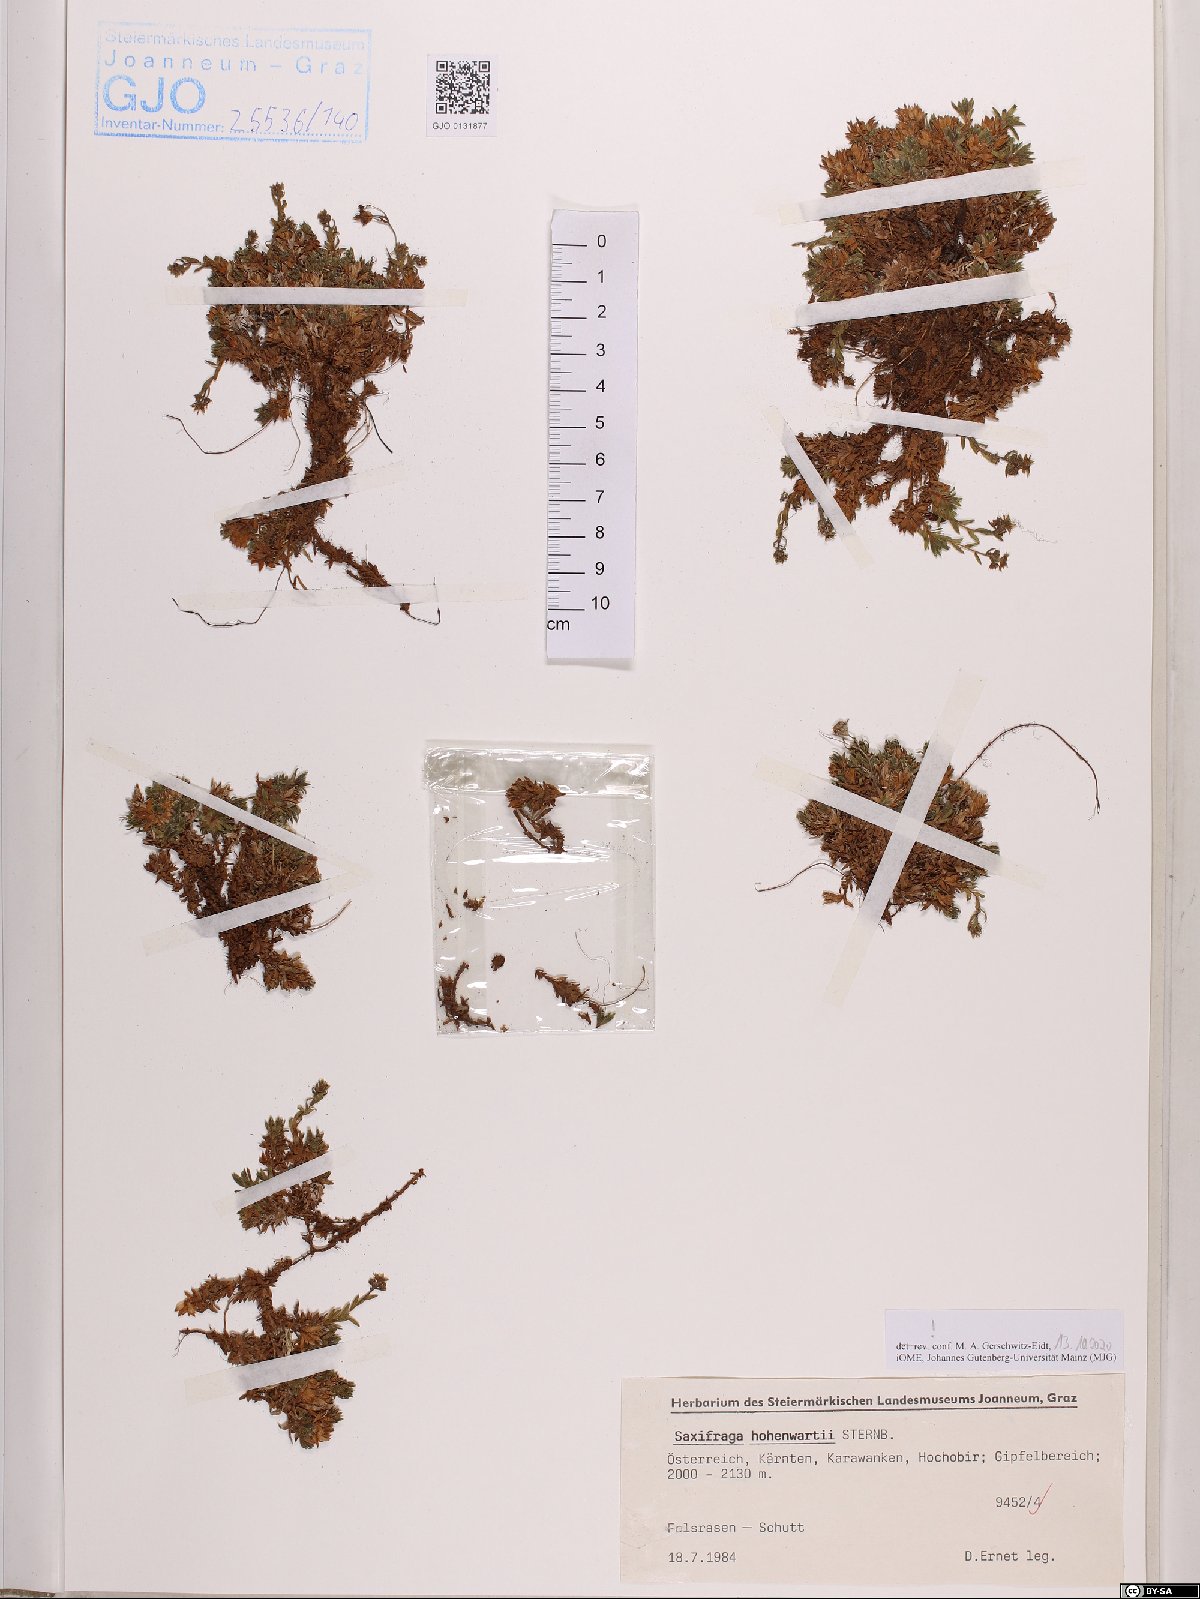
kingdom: Plantae
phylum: Tracheophyta
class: Magnoliopsida
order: Saxifragales
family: Saxifragaceae
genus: Saxifraga
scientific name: Saxifraga hohenwartii
